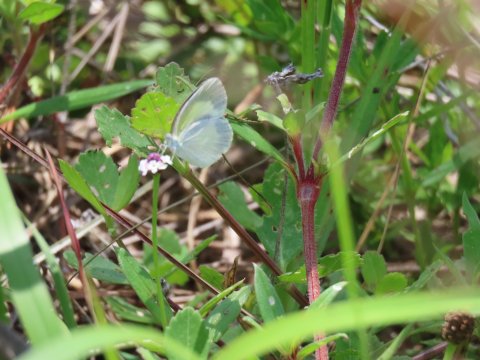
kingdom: Animalia
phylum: Arthropoda
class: Insecta
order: Lepidoptera
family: Pieridae
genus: Eurema
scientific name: Eurema daira
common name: Barred Yellow
